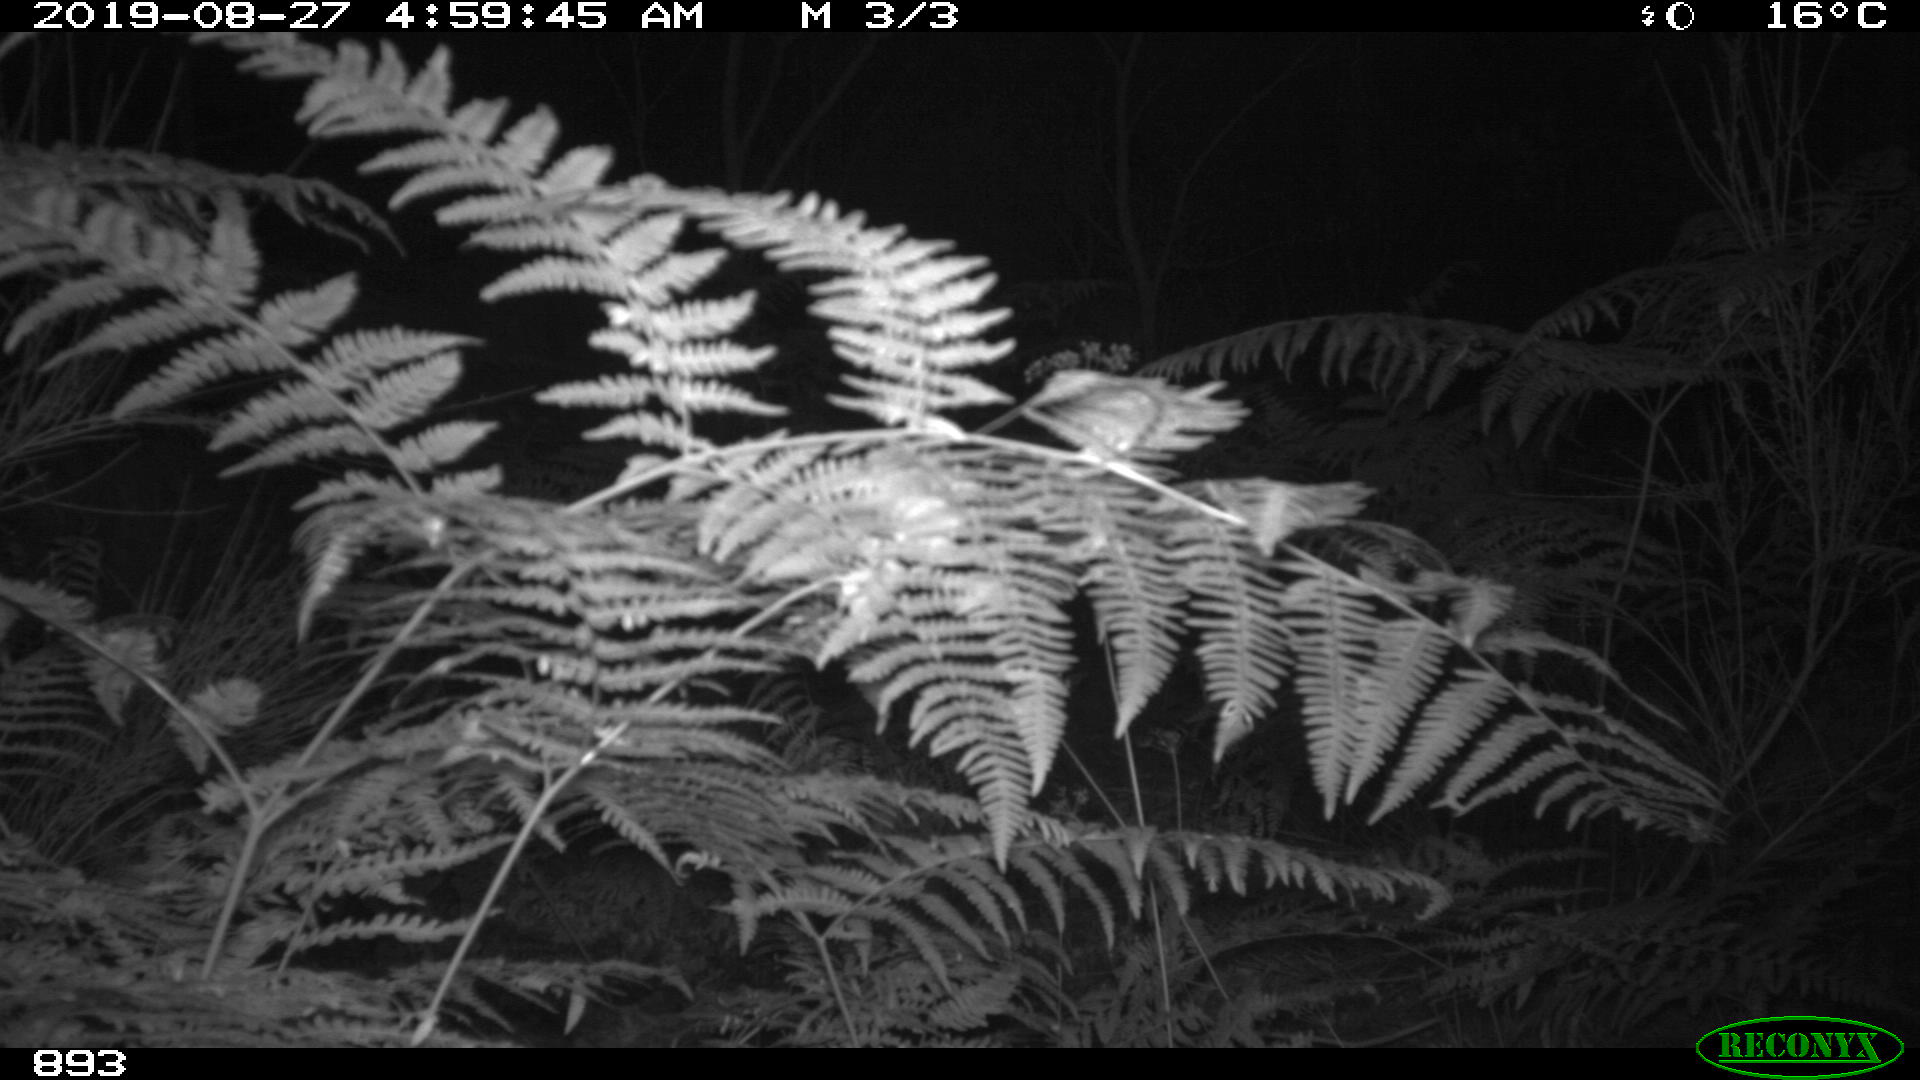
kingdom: Animalia
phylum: Chordata
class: Mammalia
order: Artiodactyla
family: Suidae
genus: Sus
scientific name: Sus scrofa
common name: Wild boar
